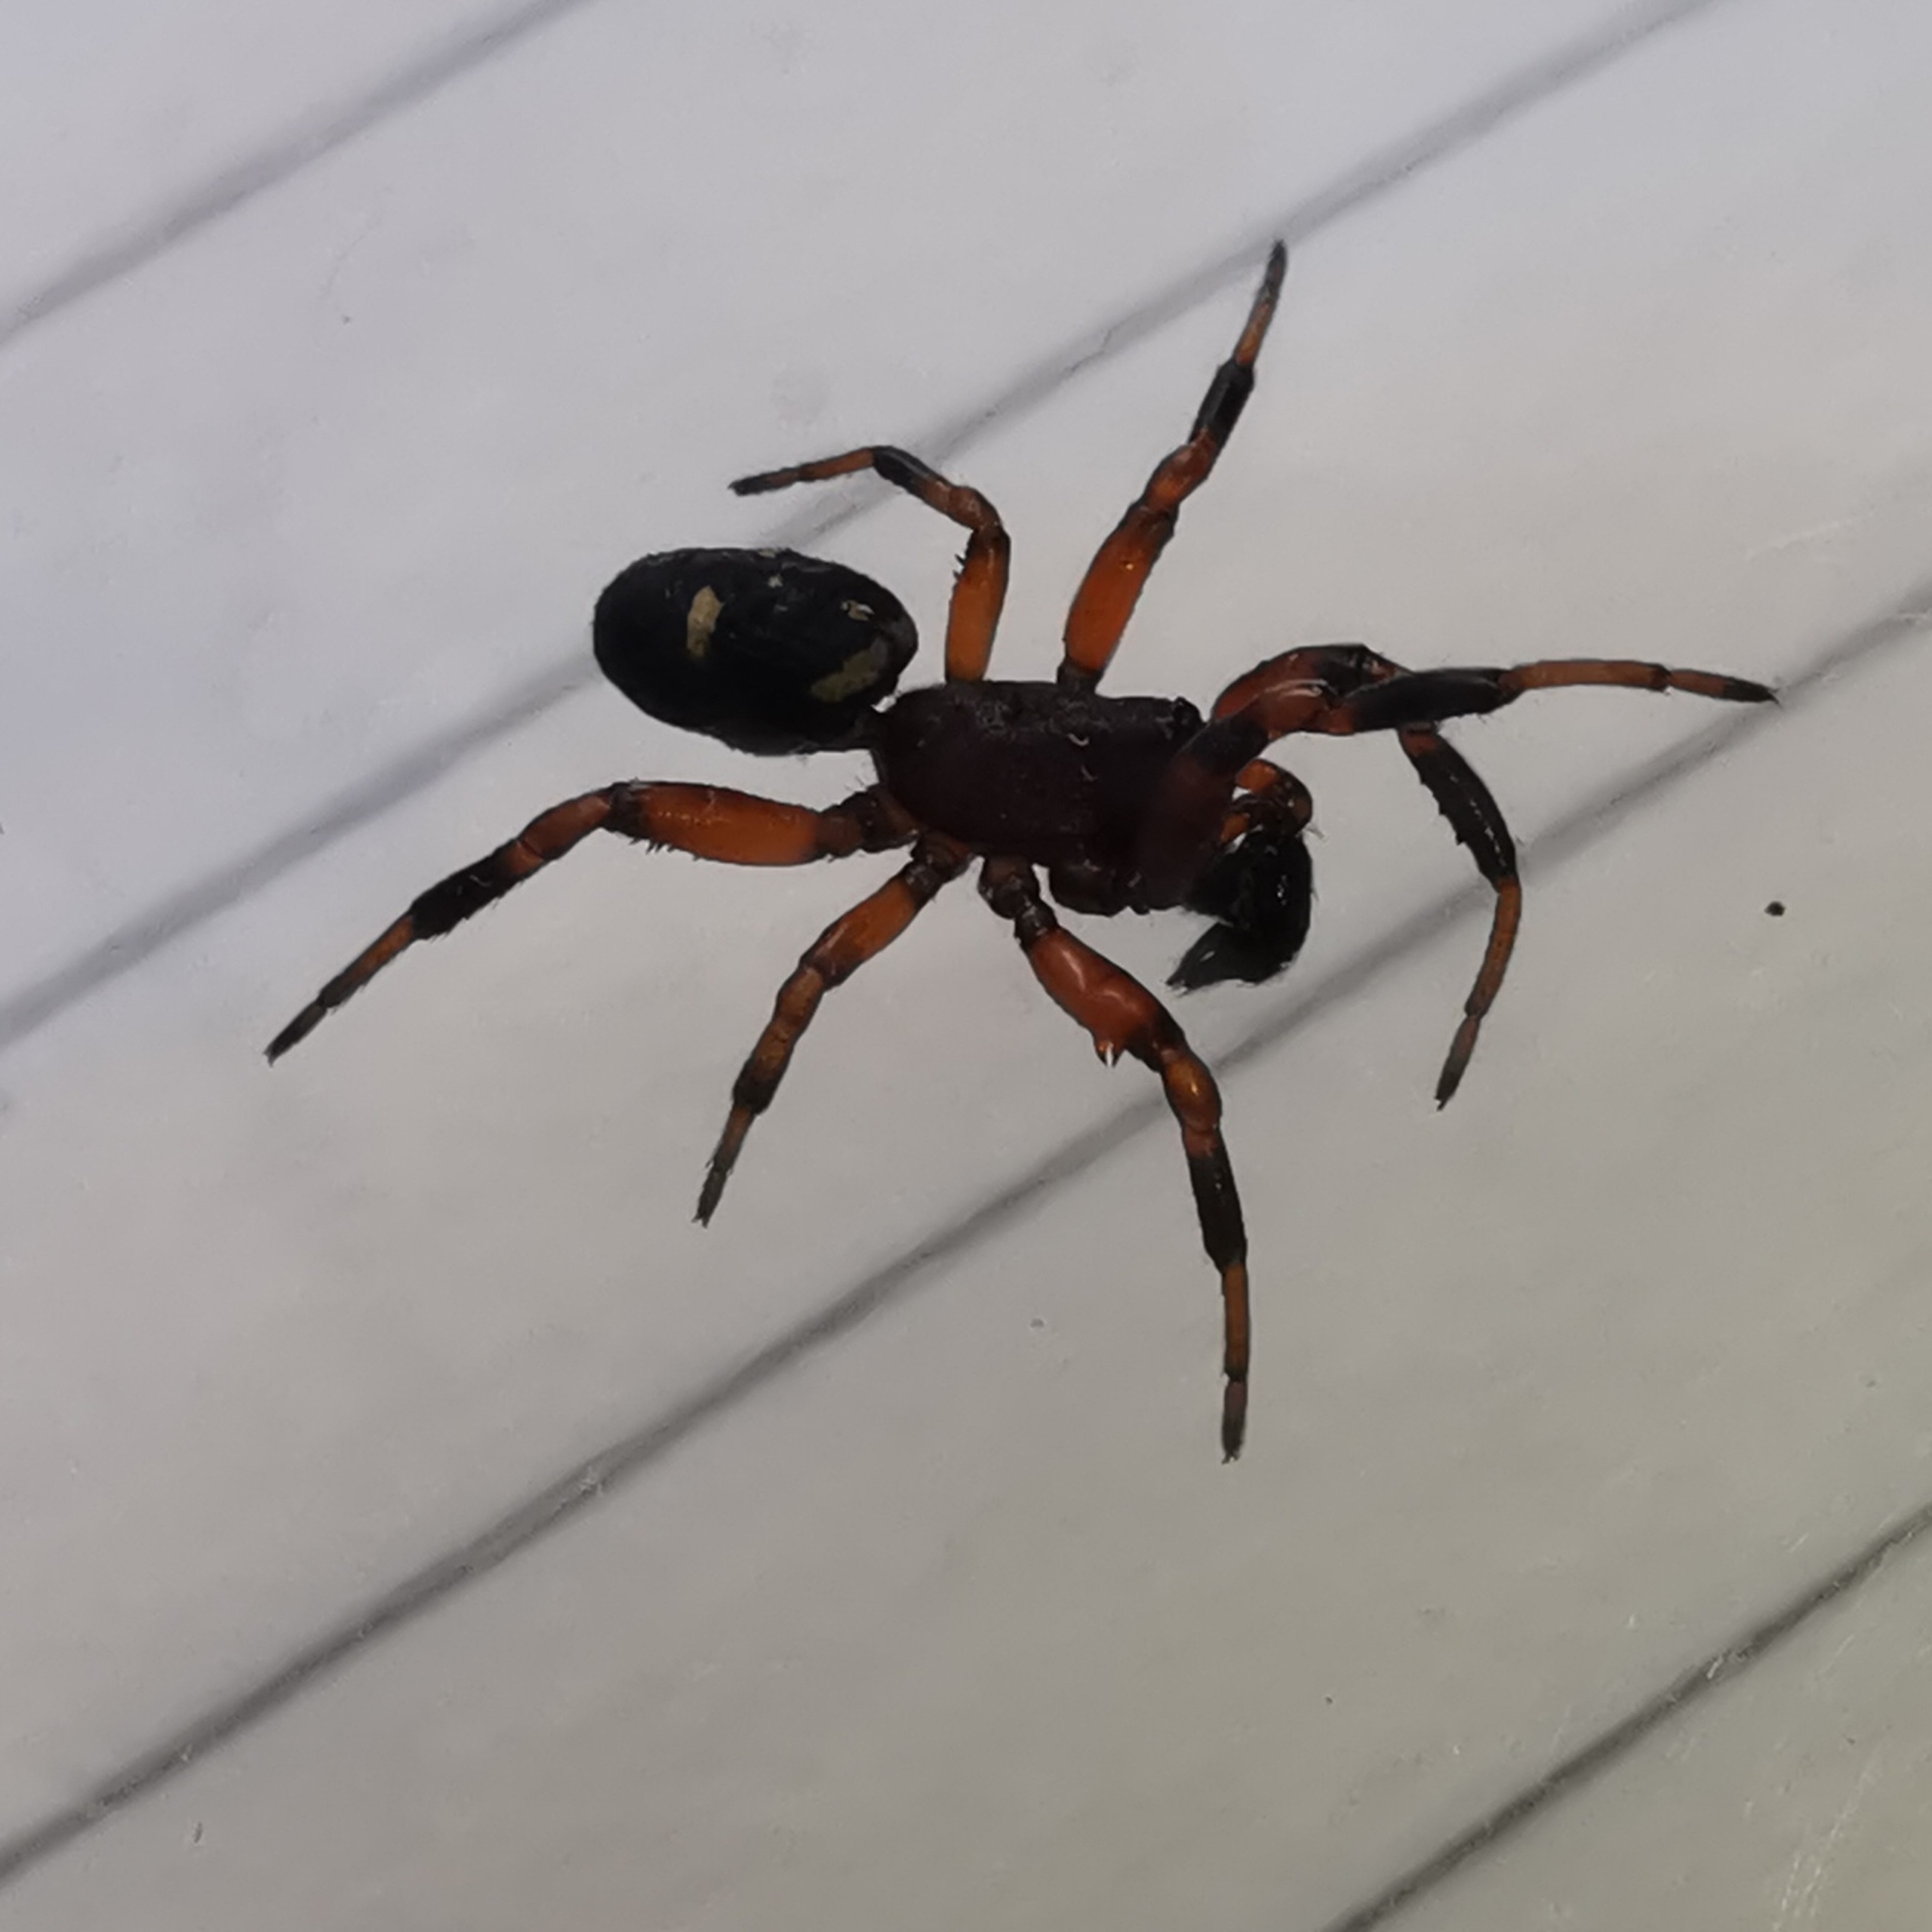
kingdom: Animalia
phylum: Arthropoda
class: Arachnida
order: Araneae
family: Theridiidae
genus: Asagena
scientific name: Asagena phalerata
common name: Smuk voksedderkop
